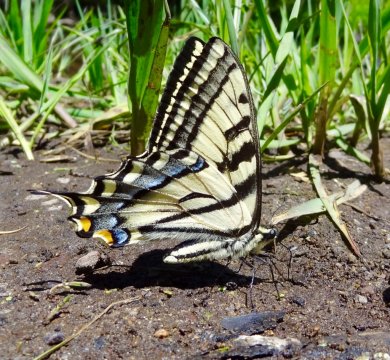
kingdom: Animalia
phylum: Arthropoda
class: Insecta
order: Lepidoptera
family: Papilionidae
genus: Pterourus
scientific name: Pterourus rutulus
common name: Western Tiger Swallowtail
